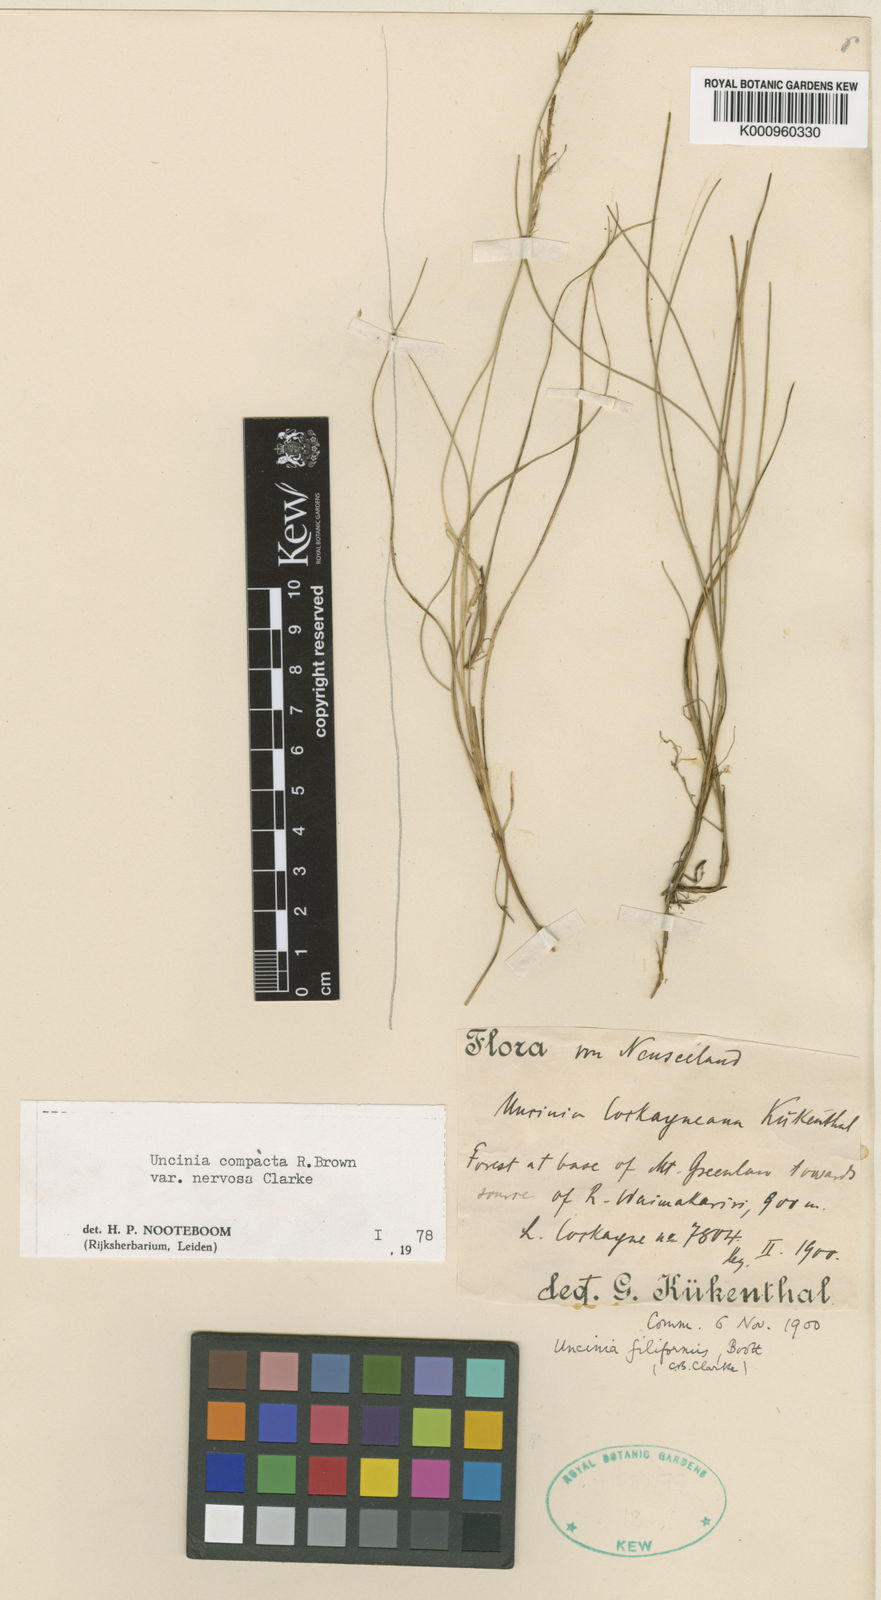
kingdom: Plantae
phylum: Tracheophyta
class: Liliopsida
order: Poales
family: Cyperaceae
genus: Carex
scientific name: Carex austrocompacta
